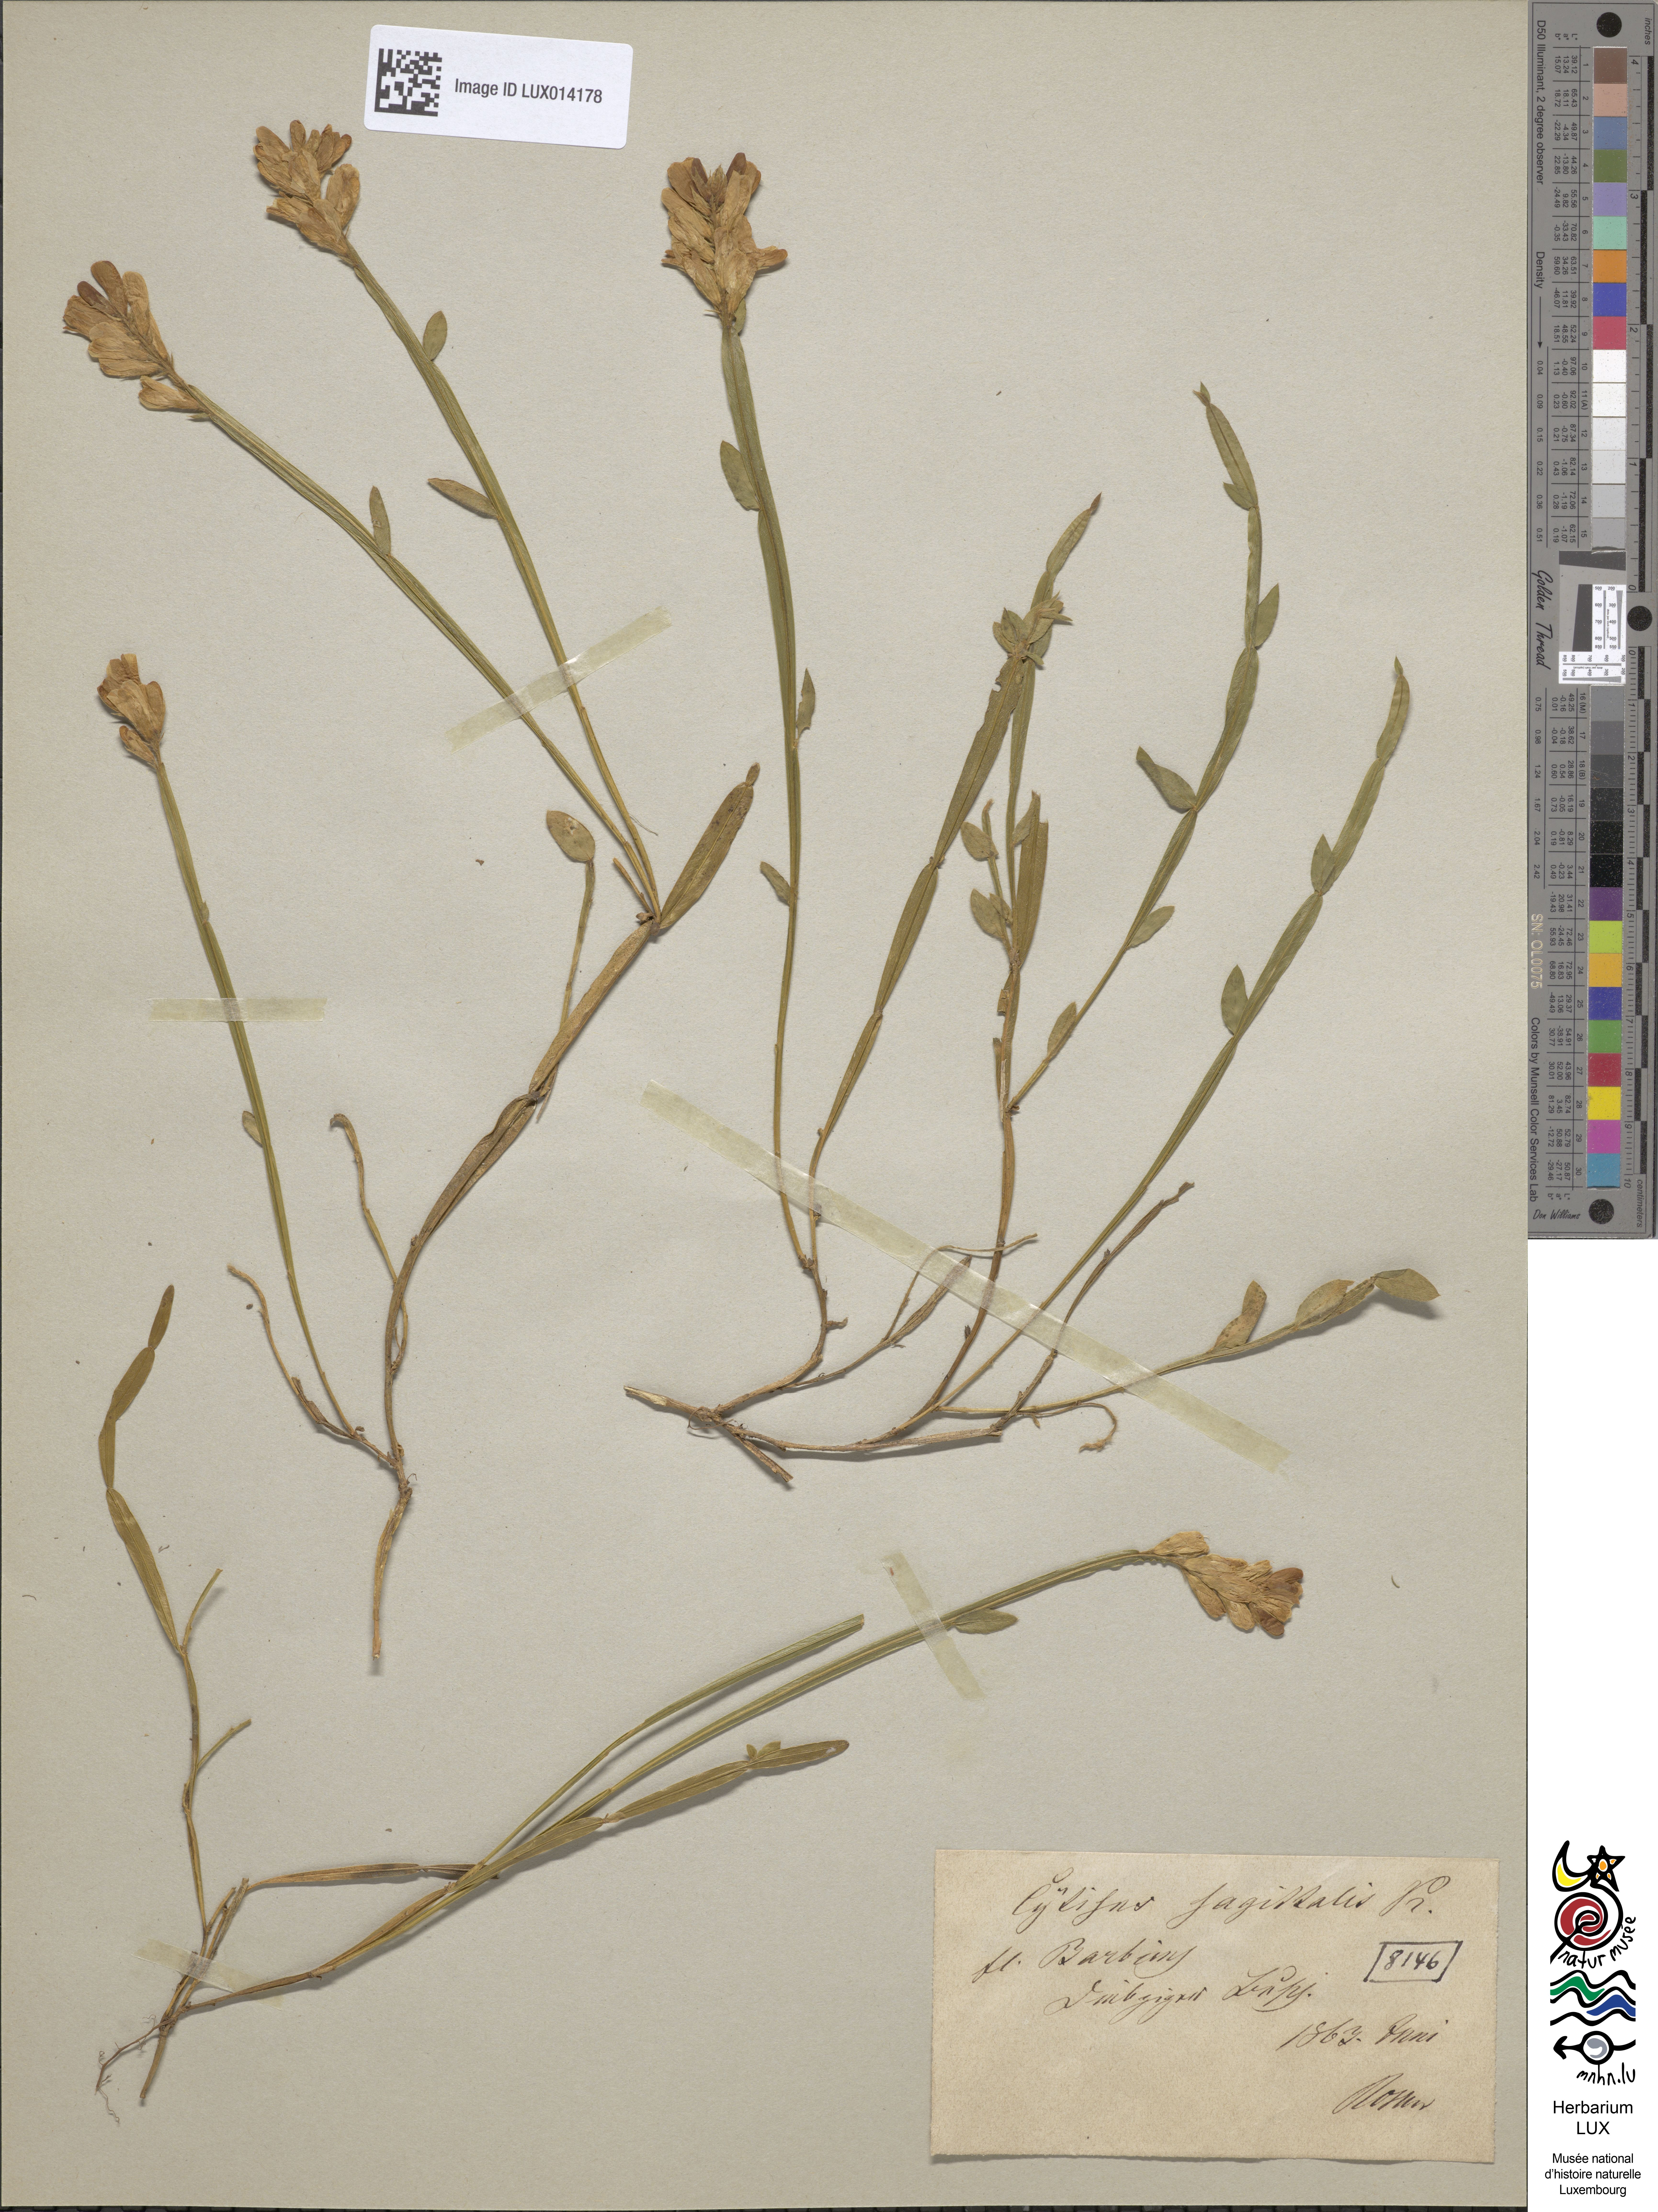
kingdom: Plantae
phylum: Tracheophyta
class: Magnoliopsida
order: Fabales
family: Fabaceae
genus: Genista
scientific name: Genista sagittalis
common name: Winged greenweed
